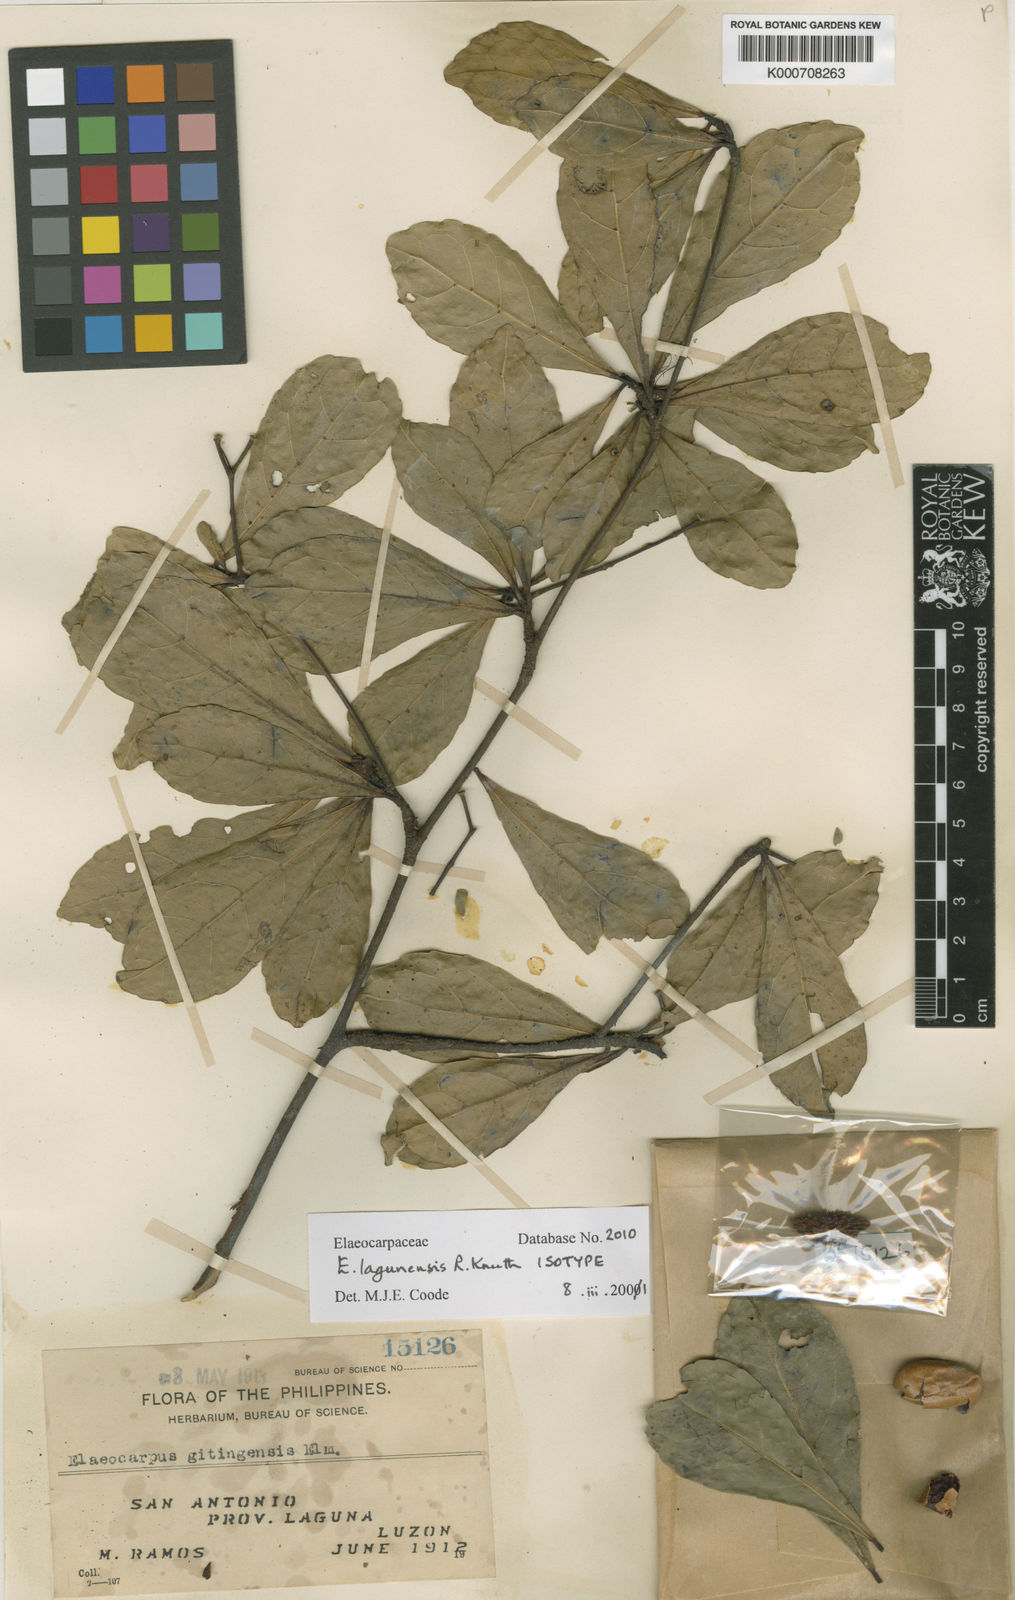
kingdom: Plantae
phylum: Tracheophyta
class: Magnoliopsida
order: Oxalidales
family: Elaeocarpaceae
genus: Elaeocarpus
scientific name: Elaeocarpus lagunensis
